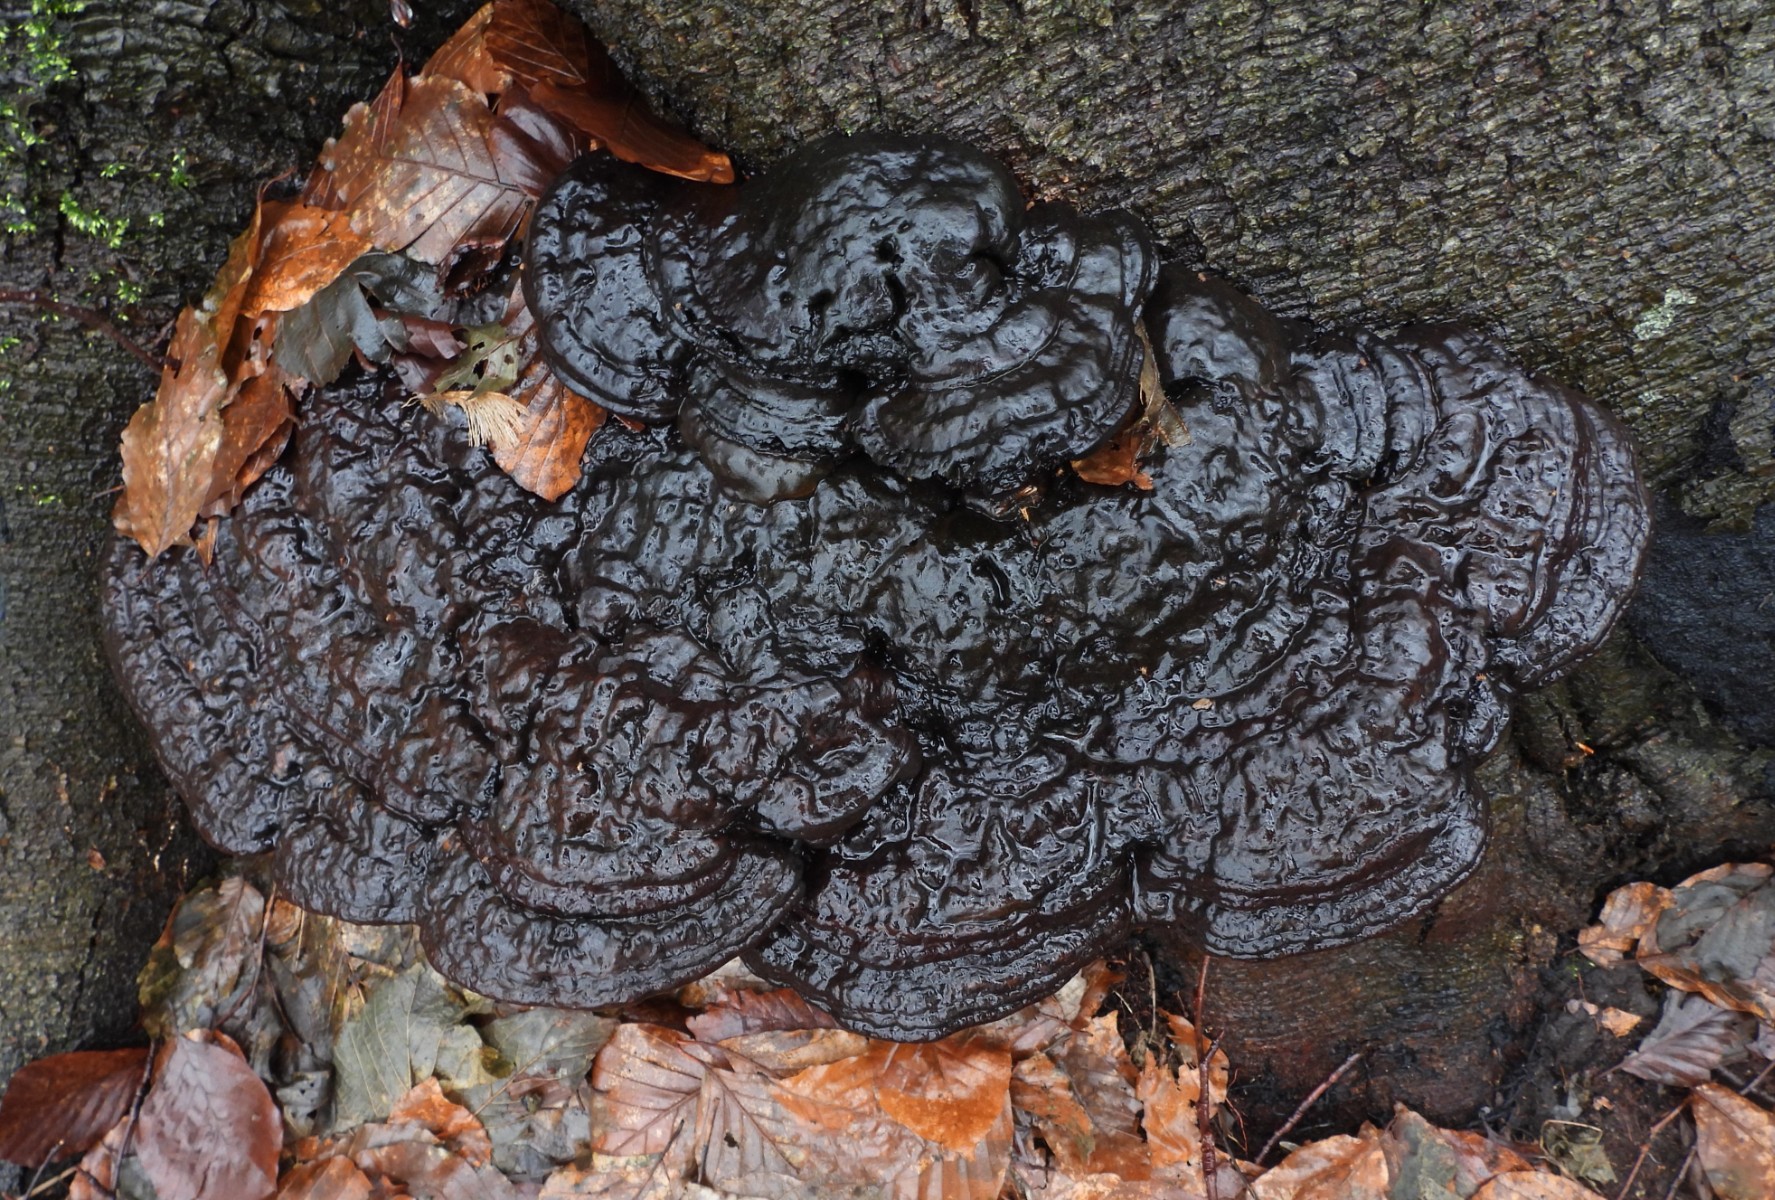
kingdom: Fungi
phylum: Basidiomycota
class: Agaricomycetes
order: Polyporales
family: Polyporaceae
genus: Ganoderma
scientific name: Ganoderma applanatum
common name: flad lakporesvamp
